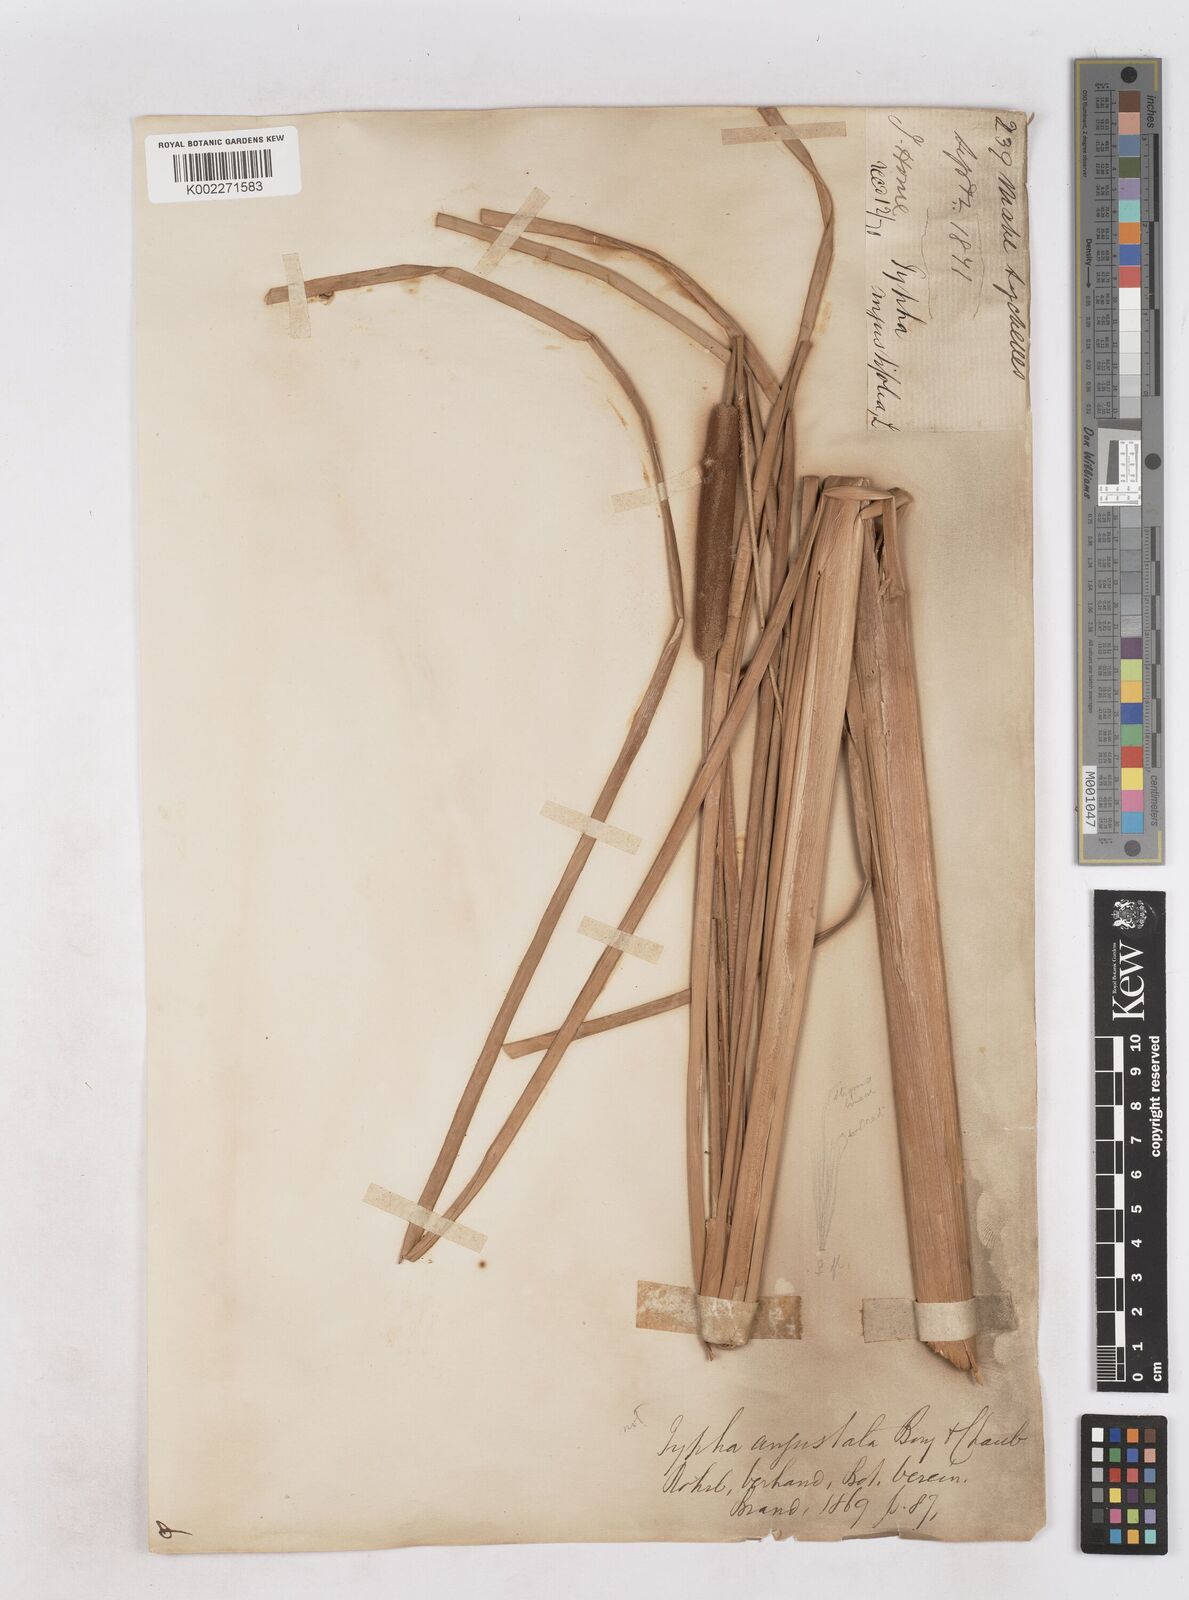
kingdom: Plantae
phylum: Tracheophyta
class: Liliopsida
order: Poales
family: Typhaceae
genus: Typha
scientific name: Typha domingensis
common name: Southern cattail
